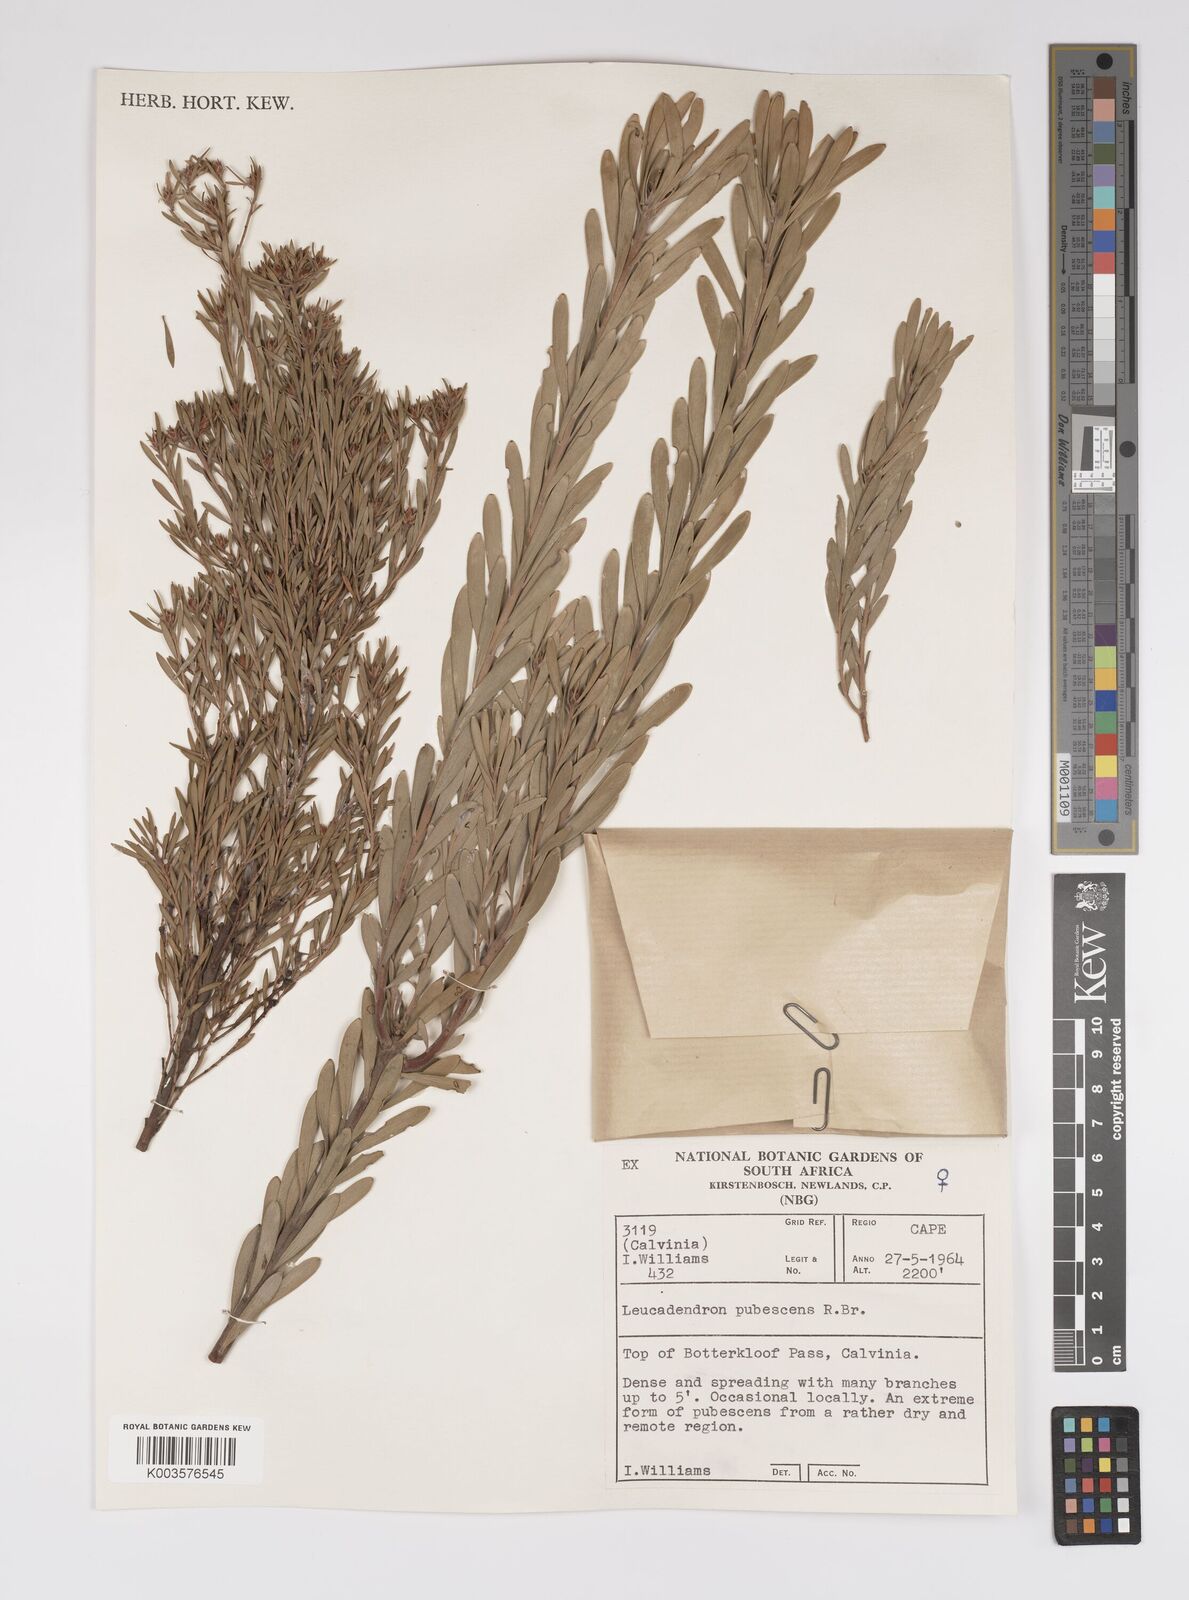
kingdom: Plantae
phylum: Tracheophyta
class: Magnoliopsida
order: Proteales
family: Proteaceae
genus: Leucadendron
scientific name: Leucadendron pubescens
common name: Grey conebush
